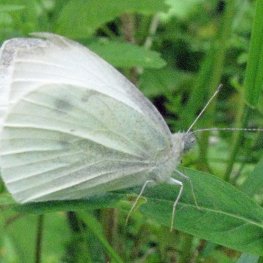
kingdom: Animalia
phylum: Arthropoda
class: Insecta
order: Lepidoptera
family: Pieridae
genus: Pieris
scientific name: Pieris rapae
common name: Cabbage White
